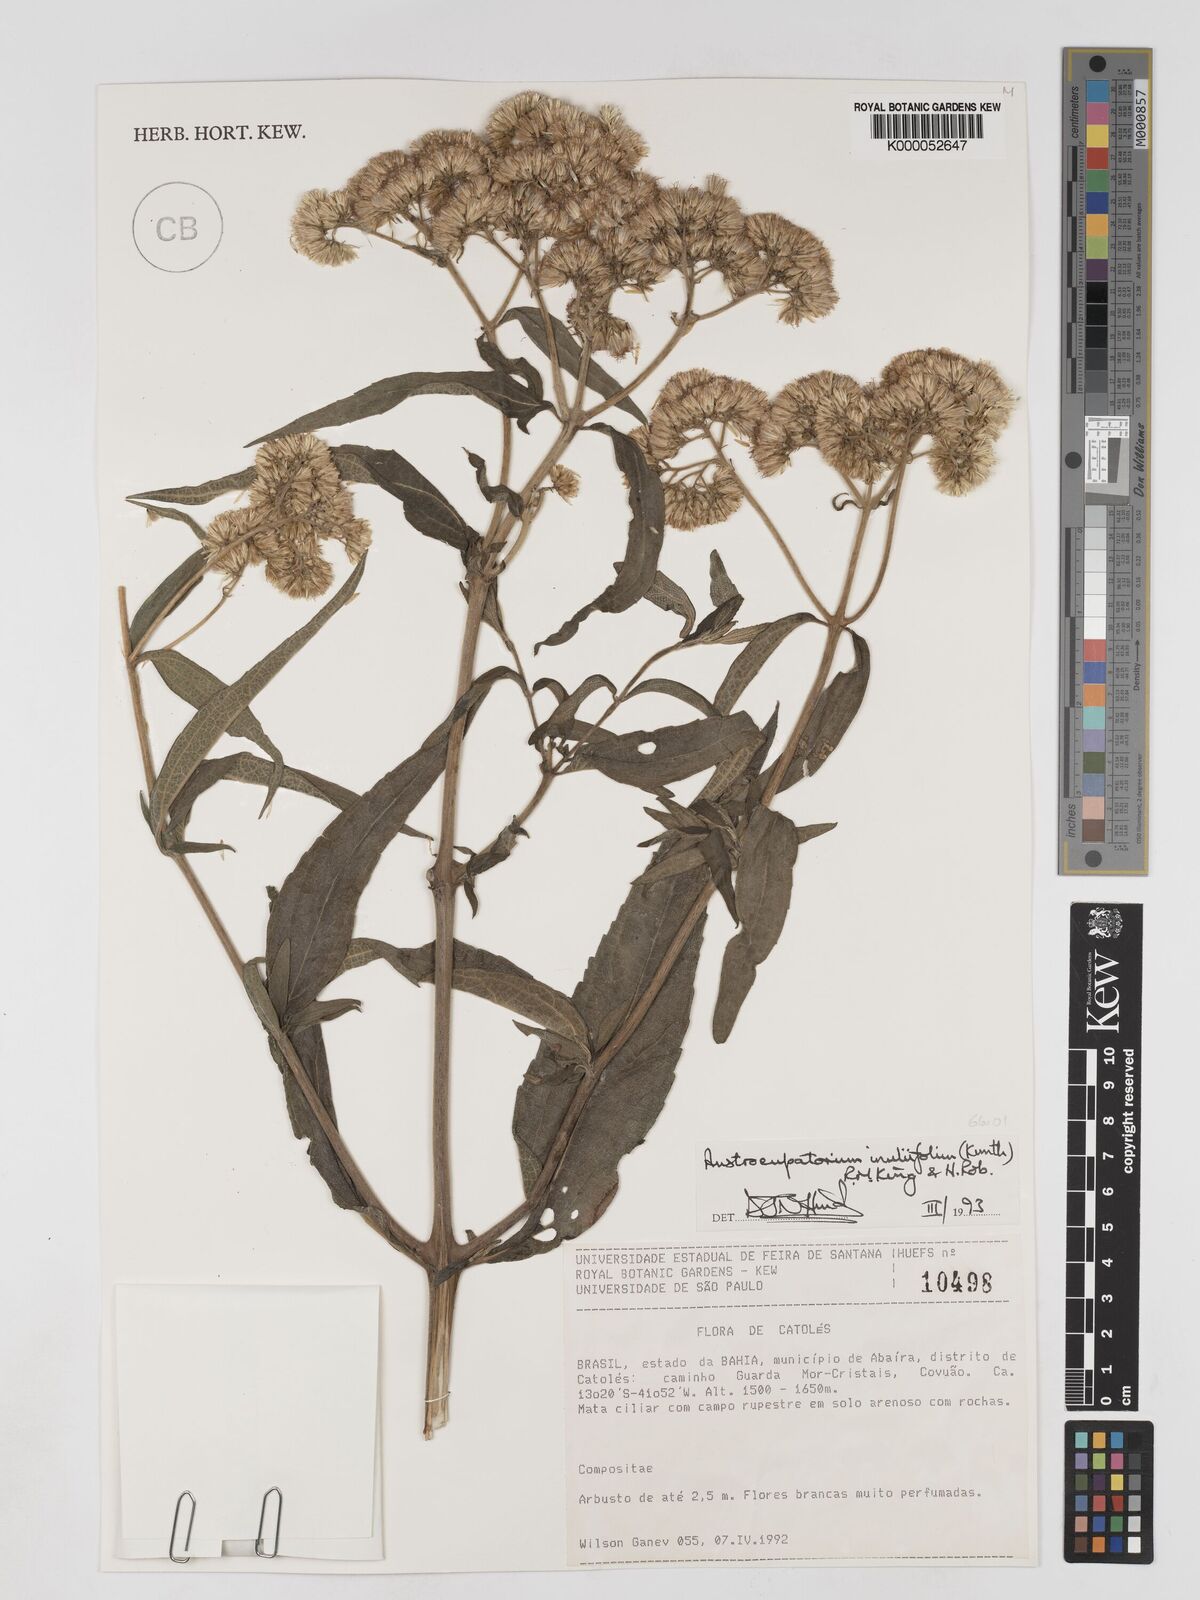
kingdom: Plantae
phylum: Tracheophyta
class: Magnoliopsida
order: Asterales
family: Asteraceae
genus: Austroeupatorium
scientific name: Austroeupatorium inulifolium
